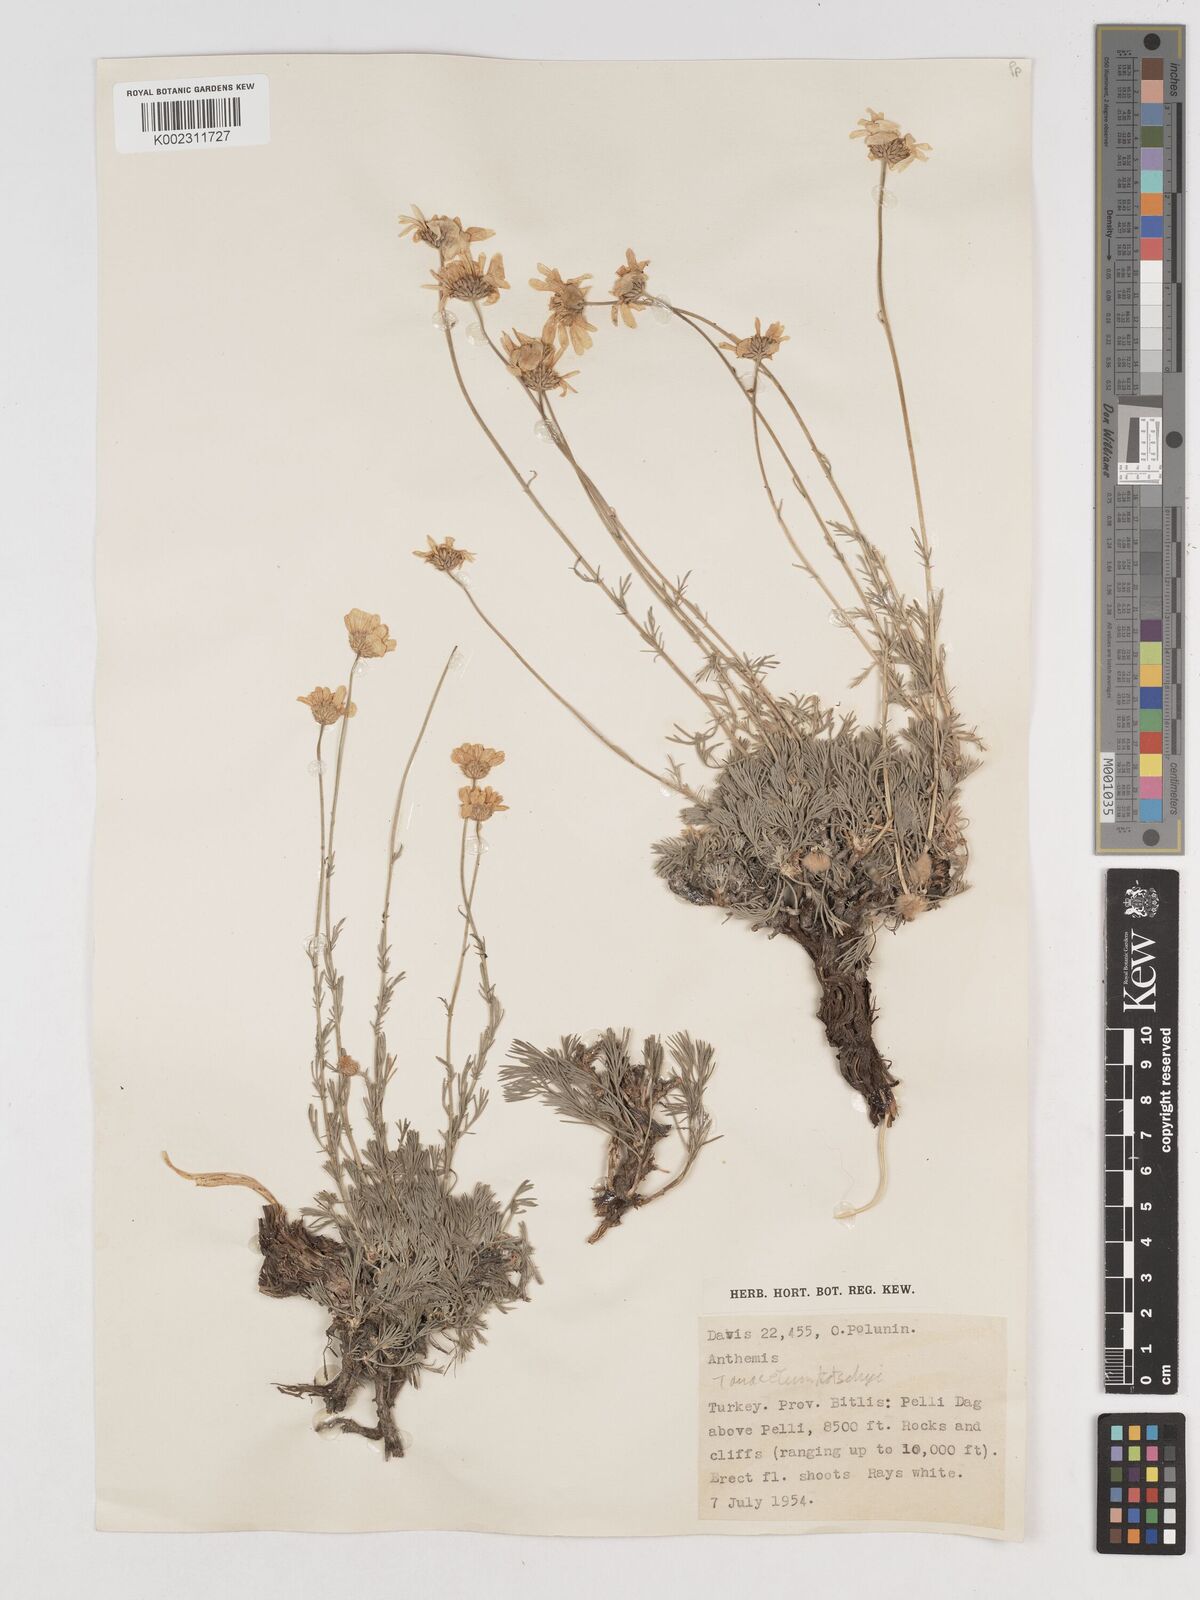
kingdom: Plantae
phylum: Tracheophyta
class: Magnoliopsida
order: Asterales
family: Asteraceae
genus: Tanacetum
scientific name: Tanacetum kotschyi
